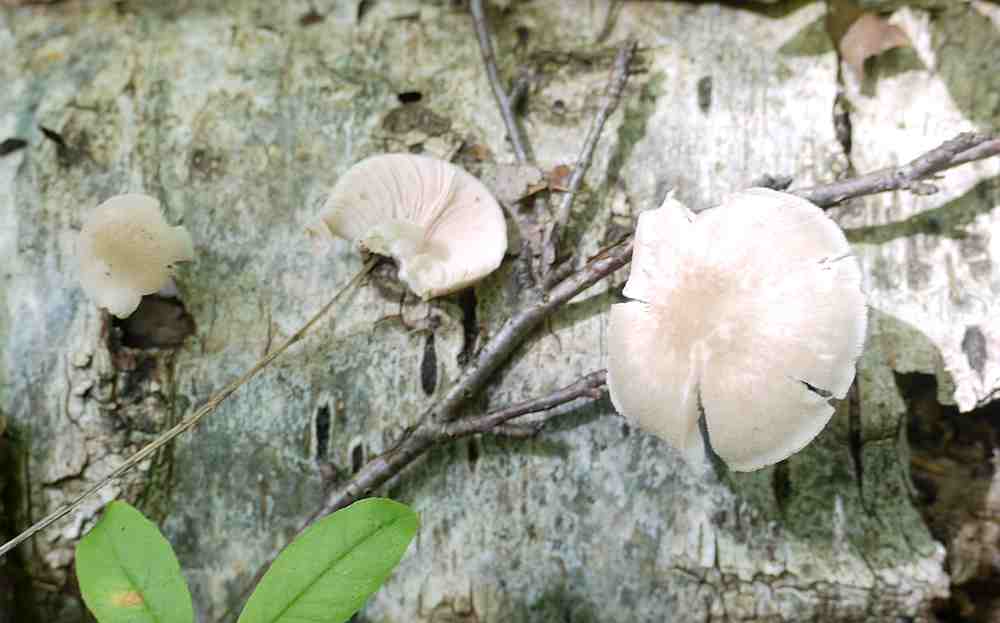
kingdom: Fungi
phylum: Basidiomycota
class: Agaricomycetes
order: Agaricales
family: Pluteaceae
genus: Pluteus
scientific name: Pluteus semibulbosus
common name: knoldet skærmhat
